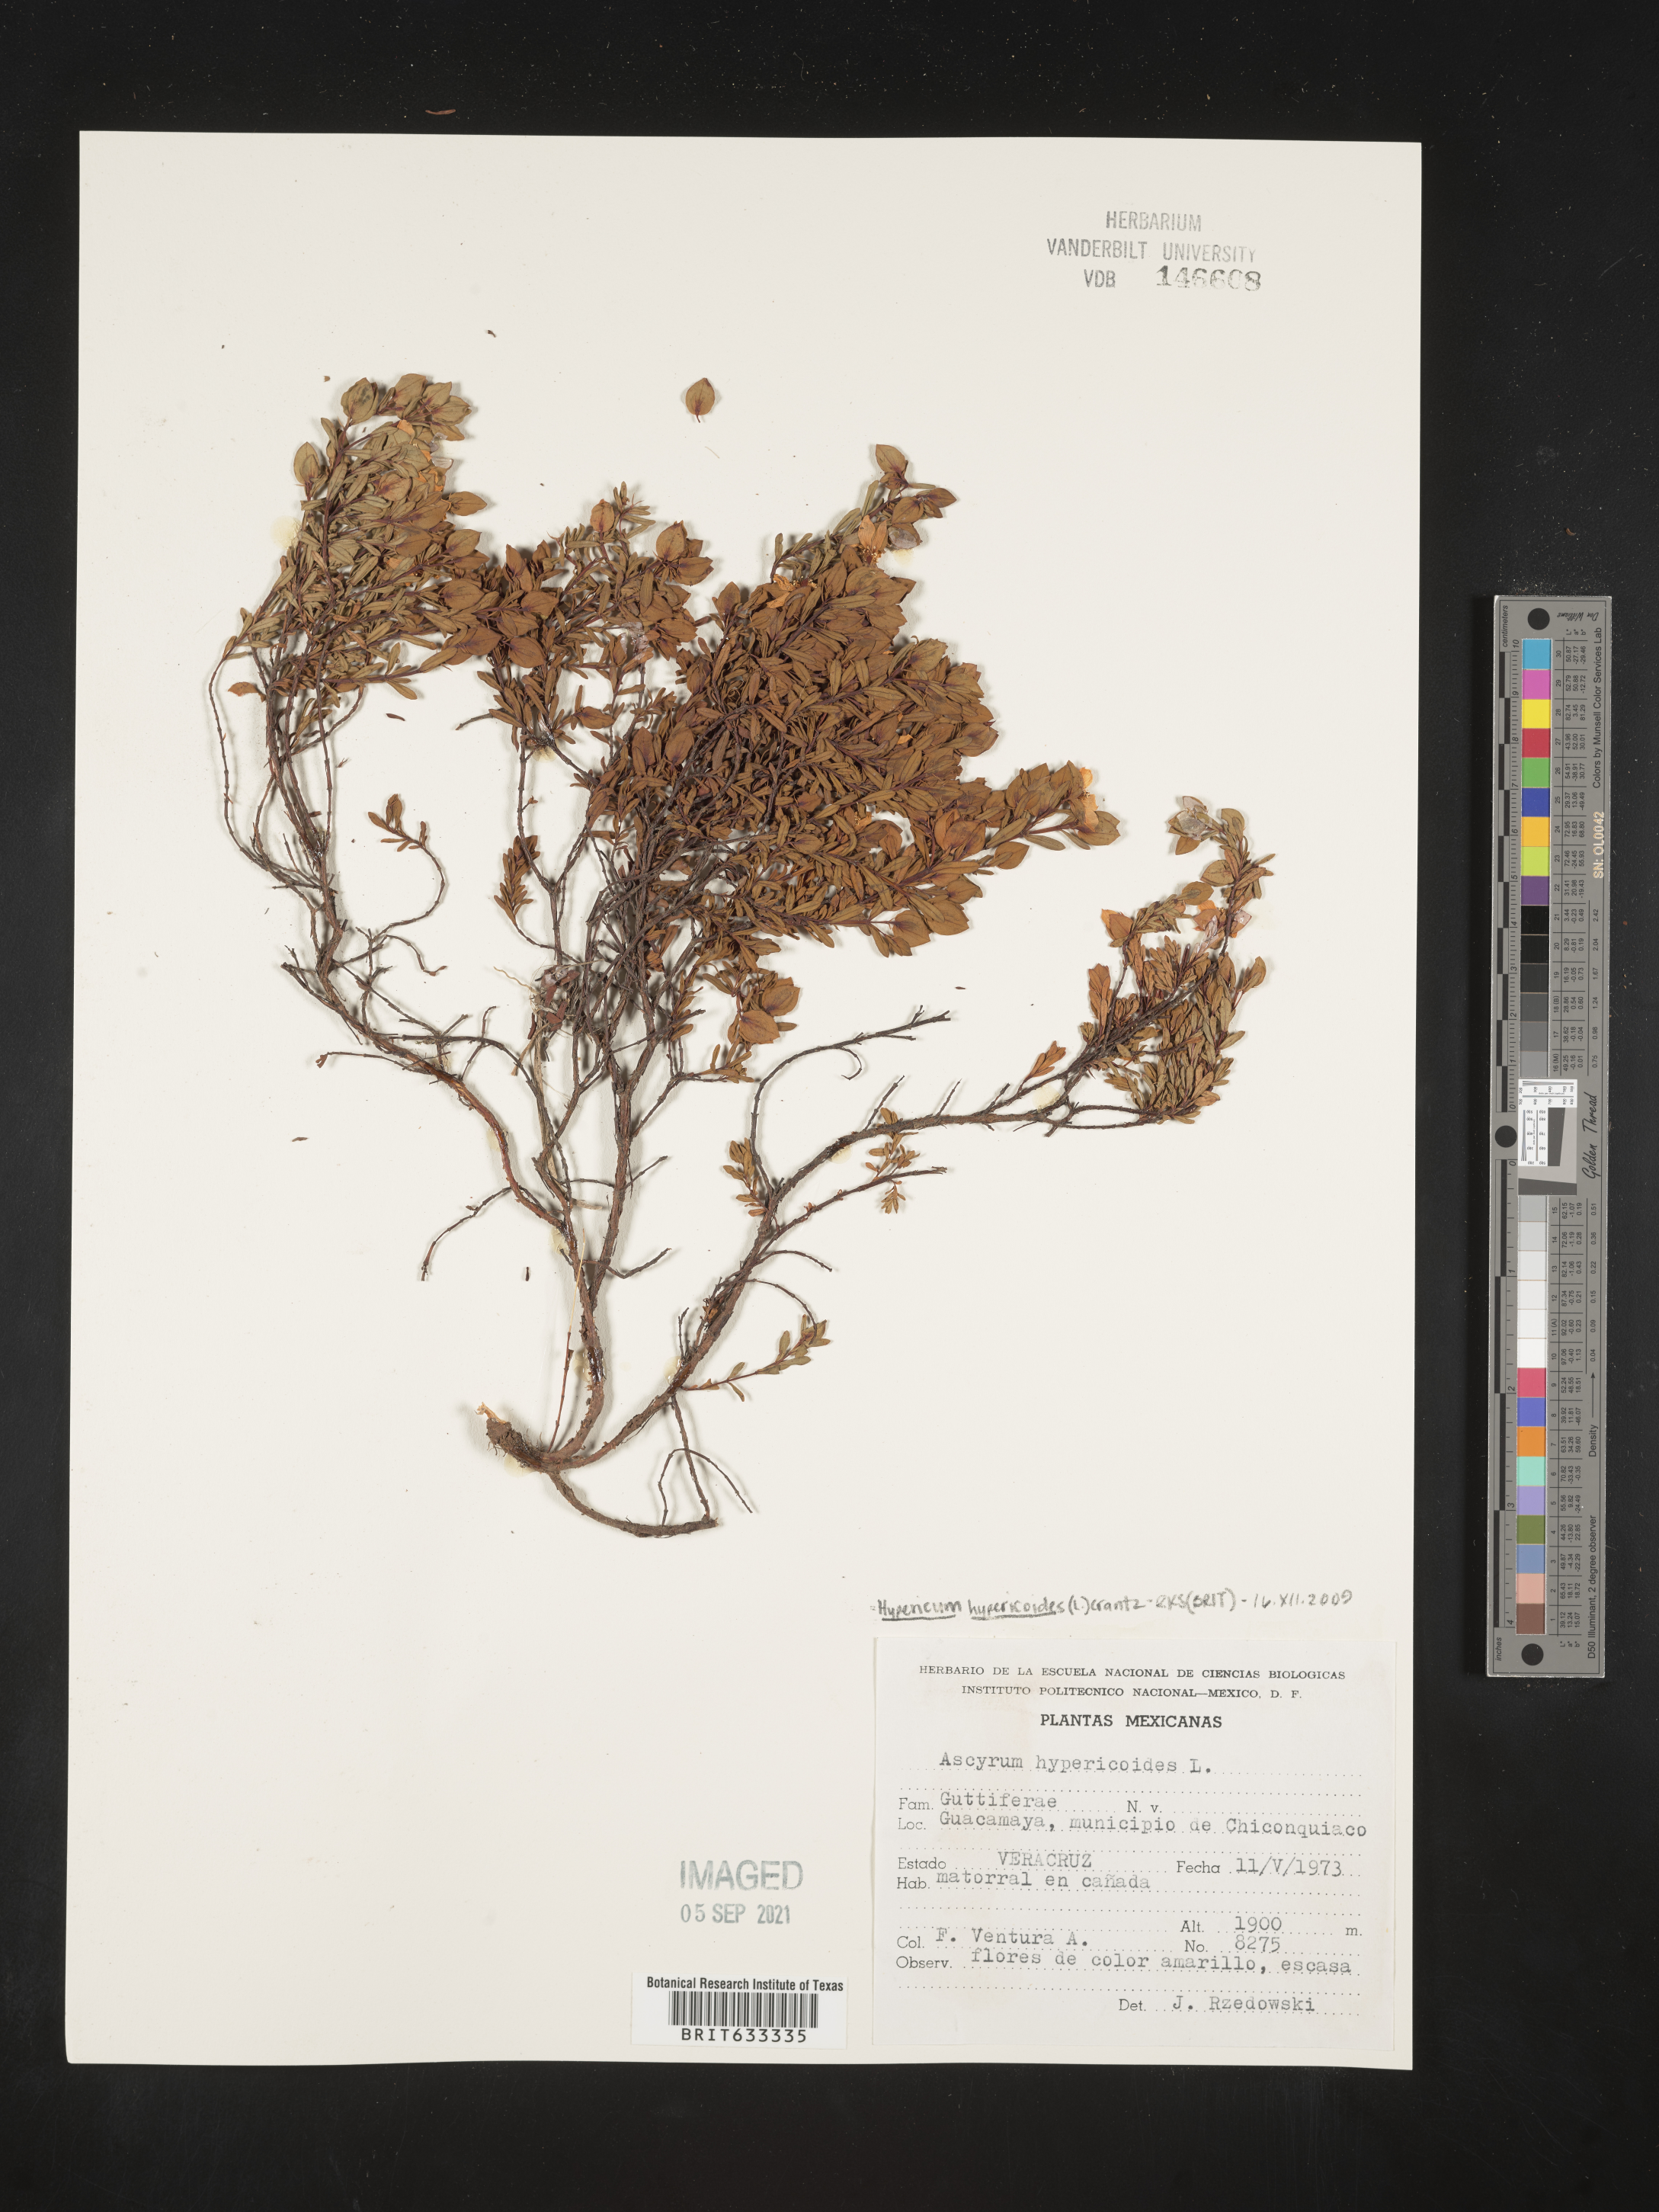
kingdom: Plantae
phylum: Tracheophyta
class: Magnoliopsida
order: Malpighiales
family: Hypericaceae
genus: Hypericum
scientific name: Hypericum
